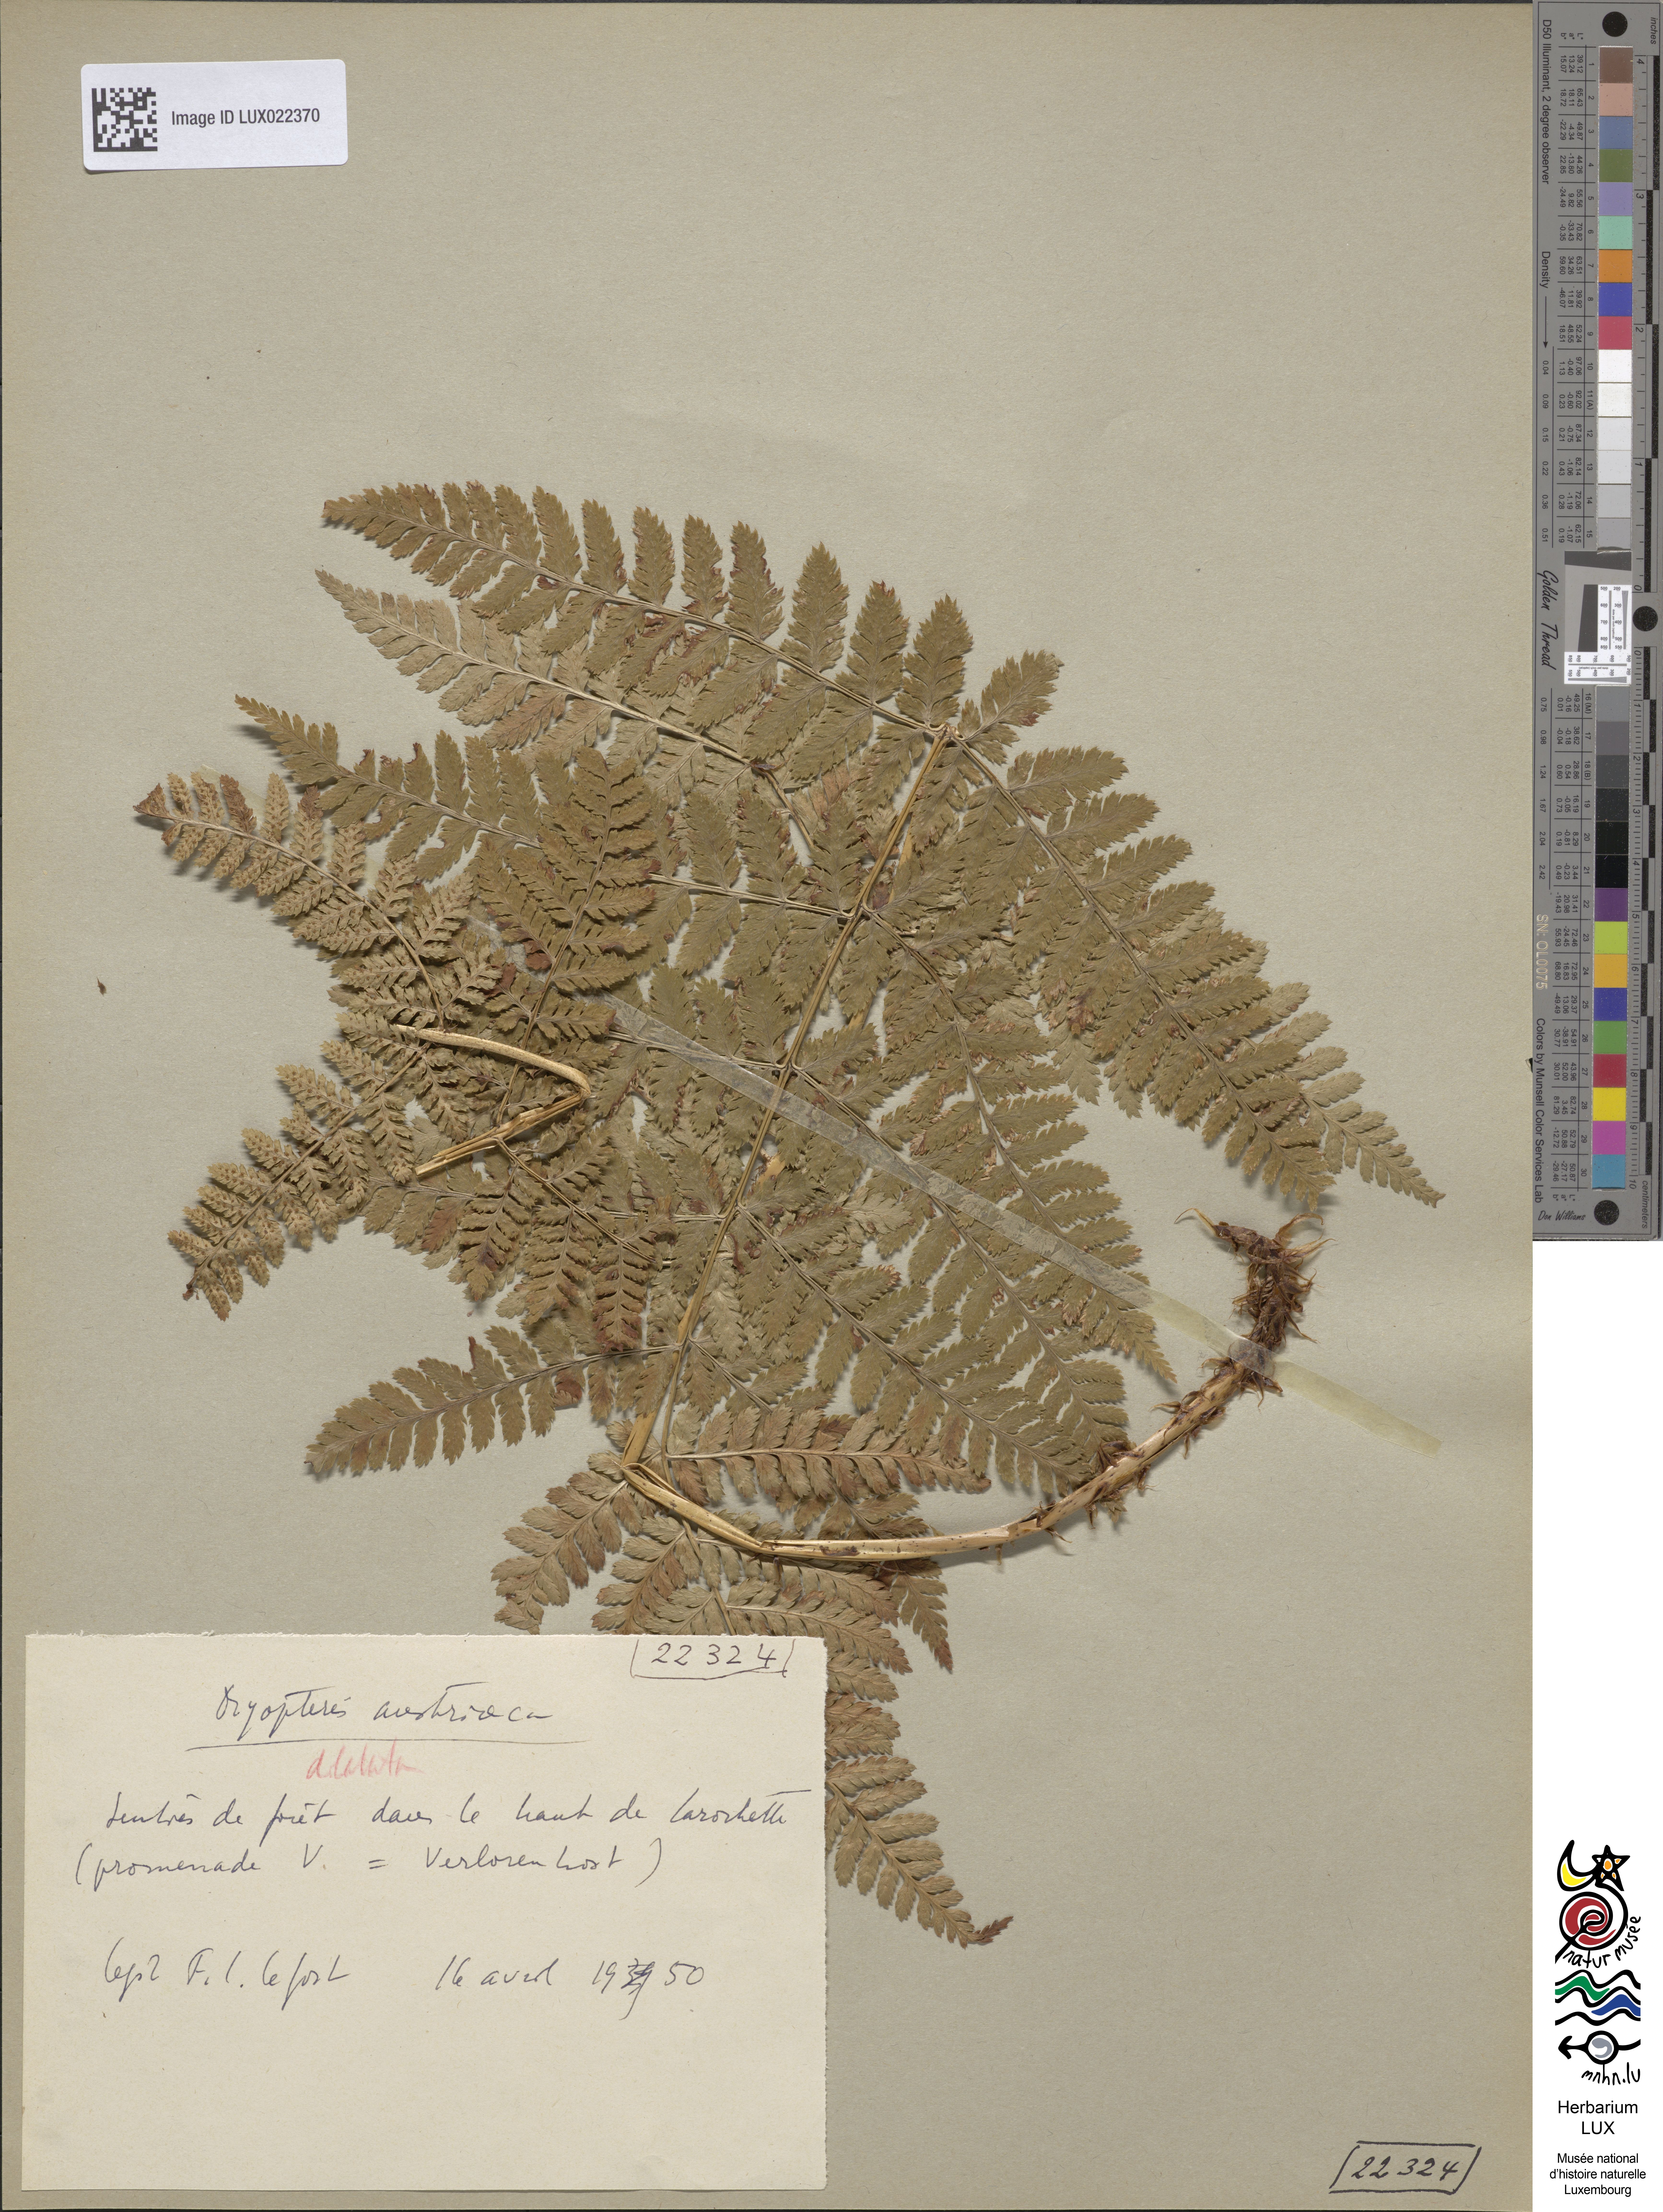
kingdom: Plantae
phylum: Tracheophyta
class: Polypodiopsida
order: Polypodiales
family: Dryopteridaceae
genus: Dryopteris
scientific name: Dryopteris dilatata
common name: Broad buckler-fern
